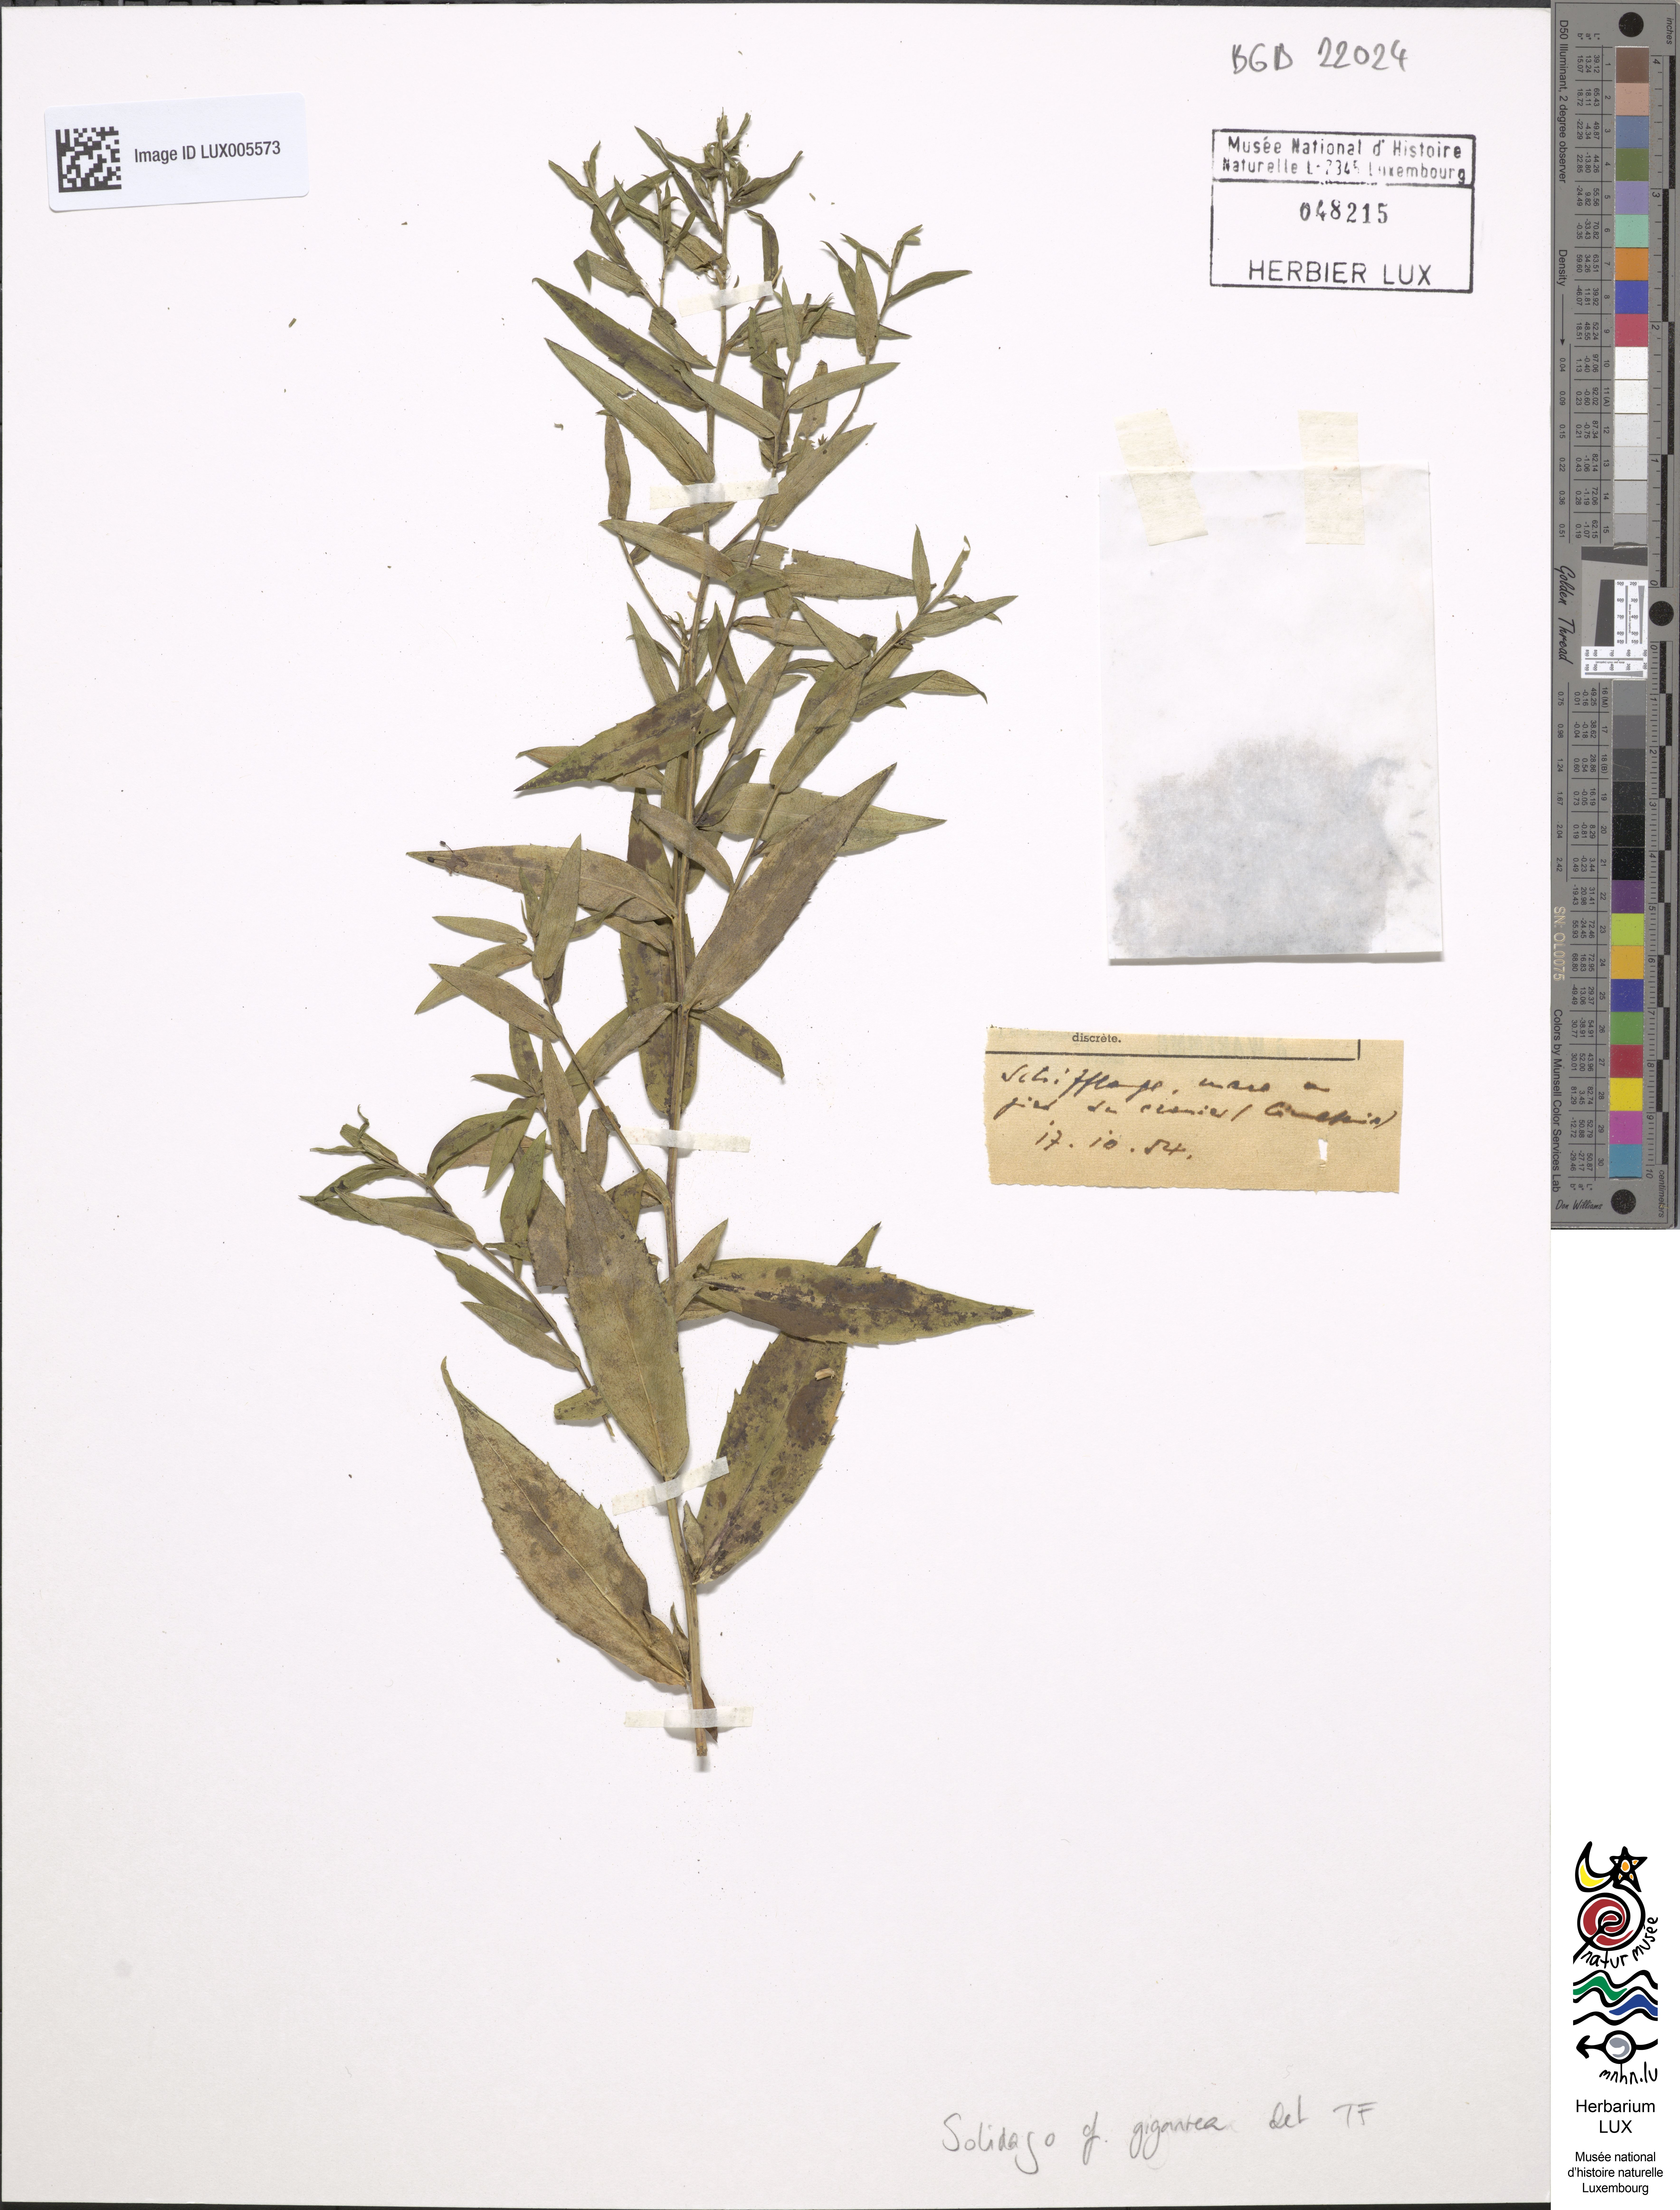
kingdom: Plantae
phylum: Tracheophyta
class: Magnoliopsida
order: Asterales
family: Asteraceae
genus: Solidago
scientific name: Solidago gigantea
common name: Giant goldenrod
